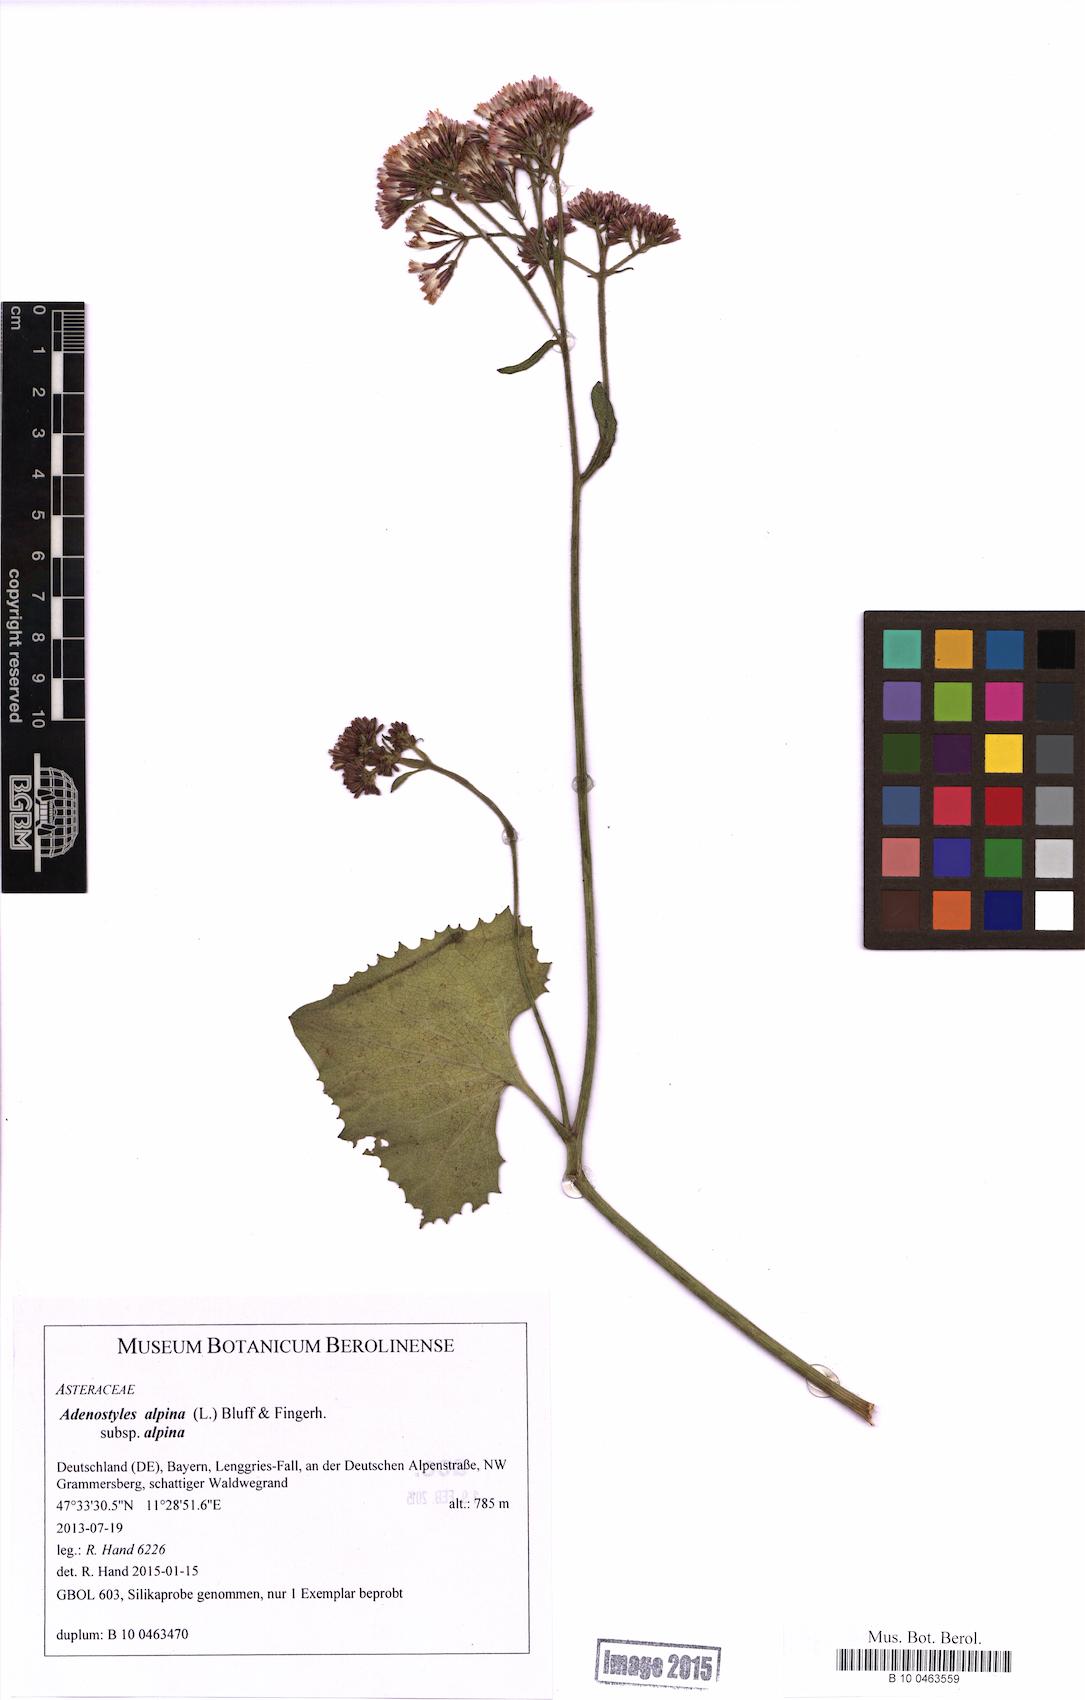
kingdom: Plantae
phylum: Tracheophyta
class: Magnoliopsida
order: Asterales
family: Asteraceae
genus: Adenostyles
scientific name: Adenostyles alpina
